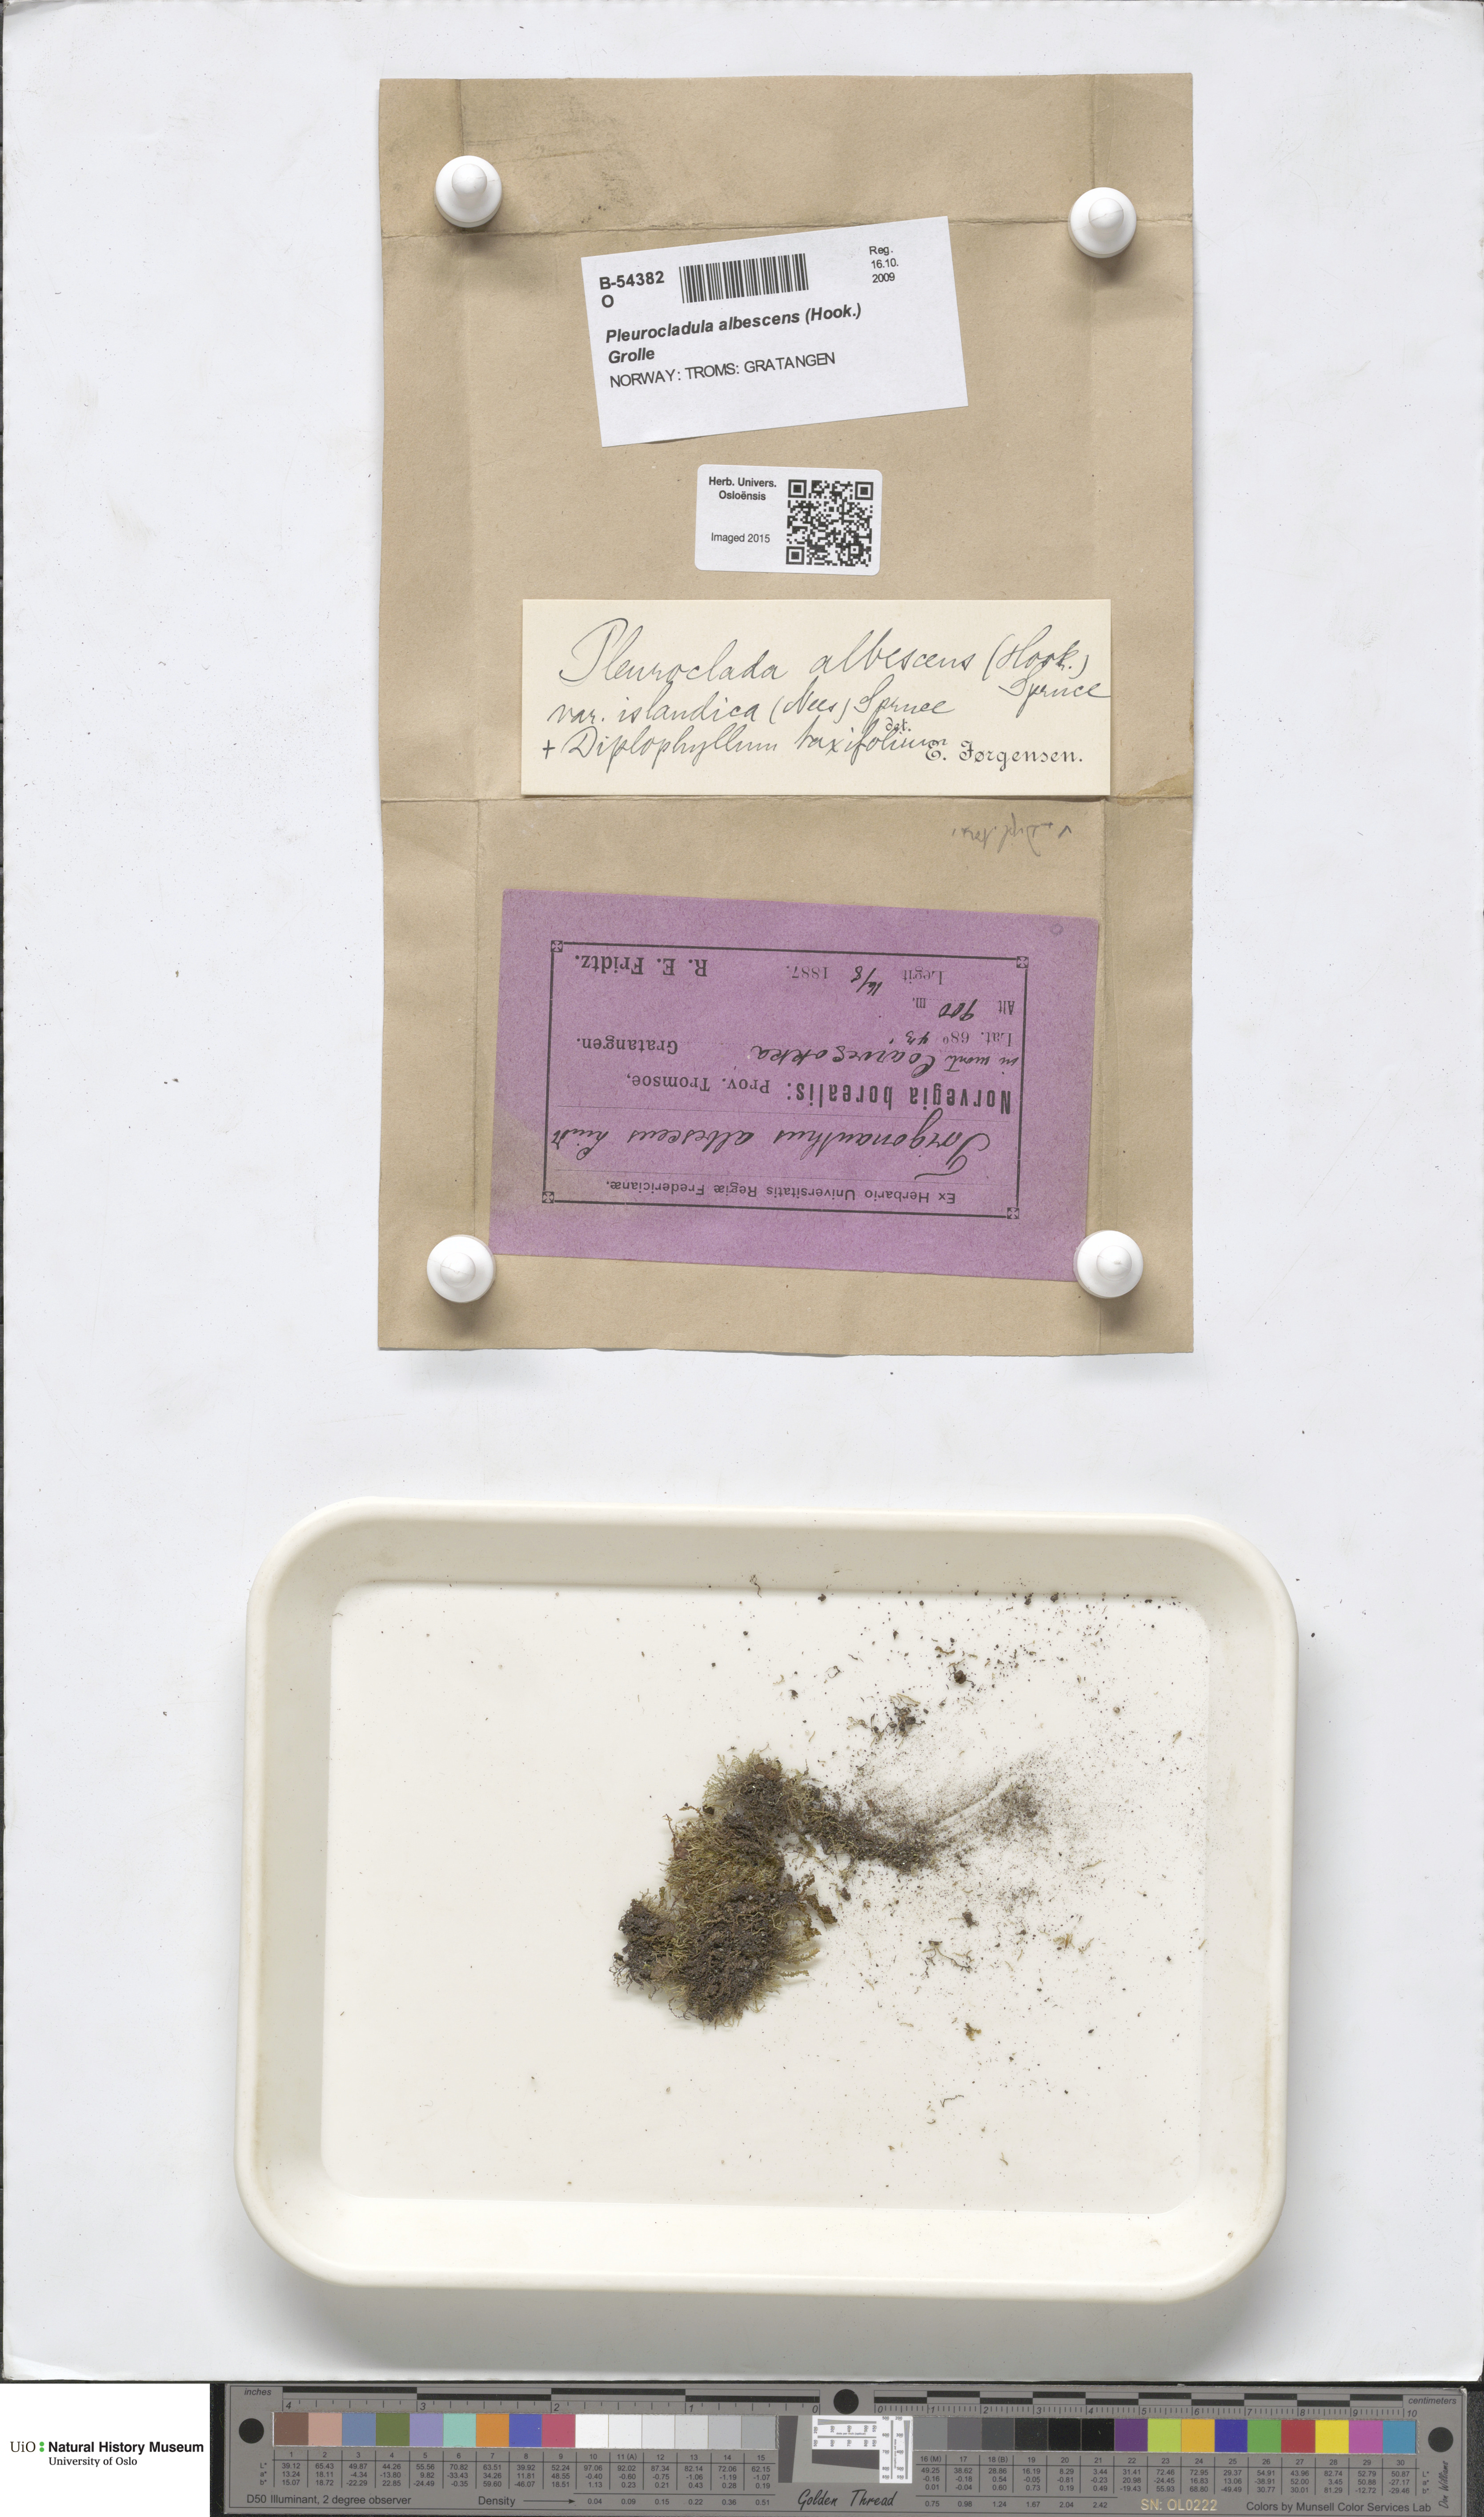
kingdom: Plantae
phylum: Marchantiophyta
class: Jungermanniopsida
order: Jungermanniales
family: Cephaloziaceae
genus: Fuscocephaloziopsis
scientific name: Fuscocephaloziopsis albescens
